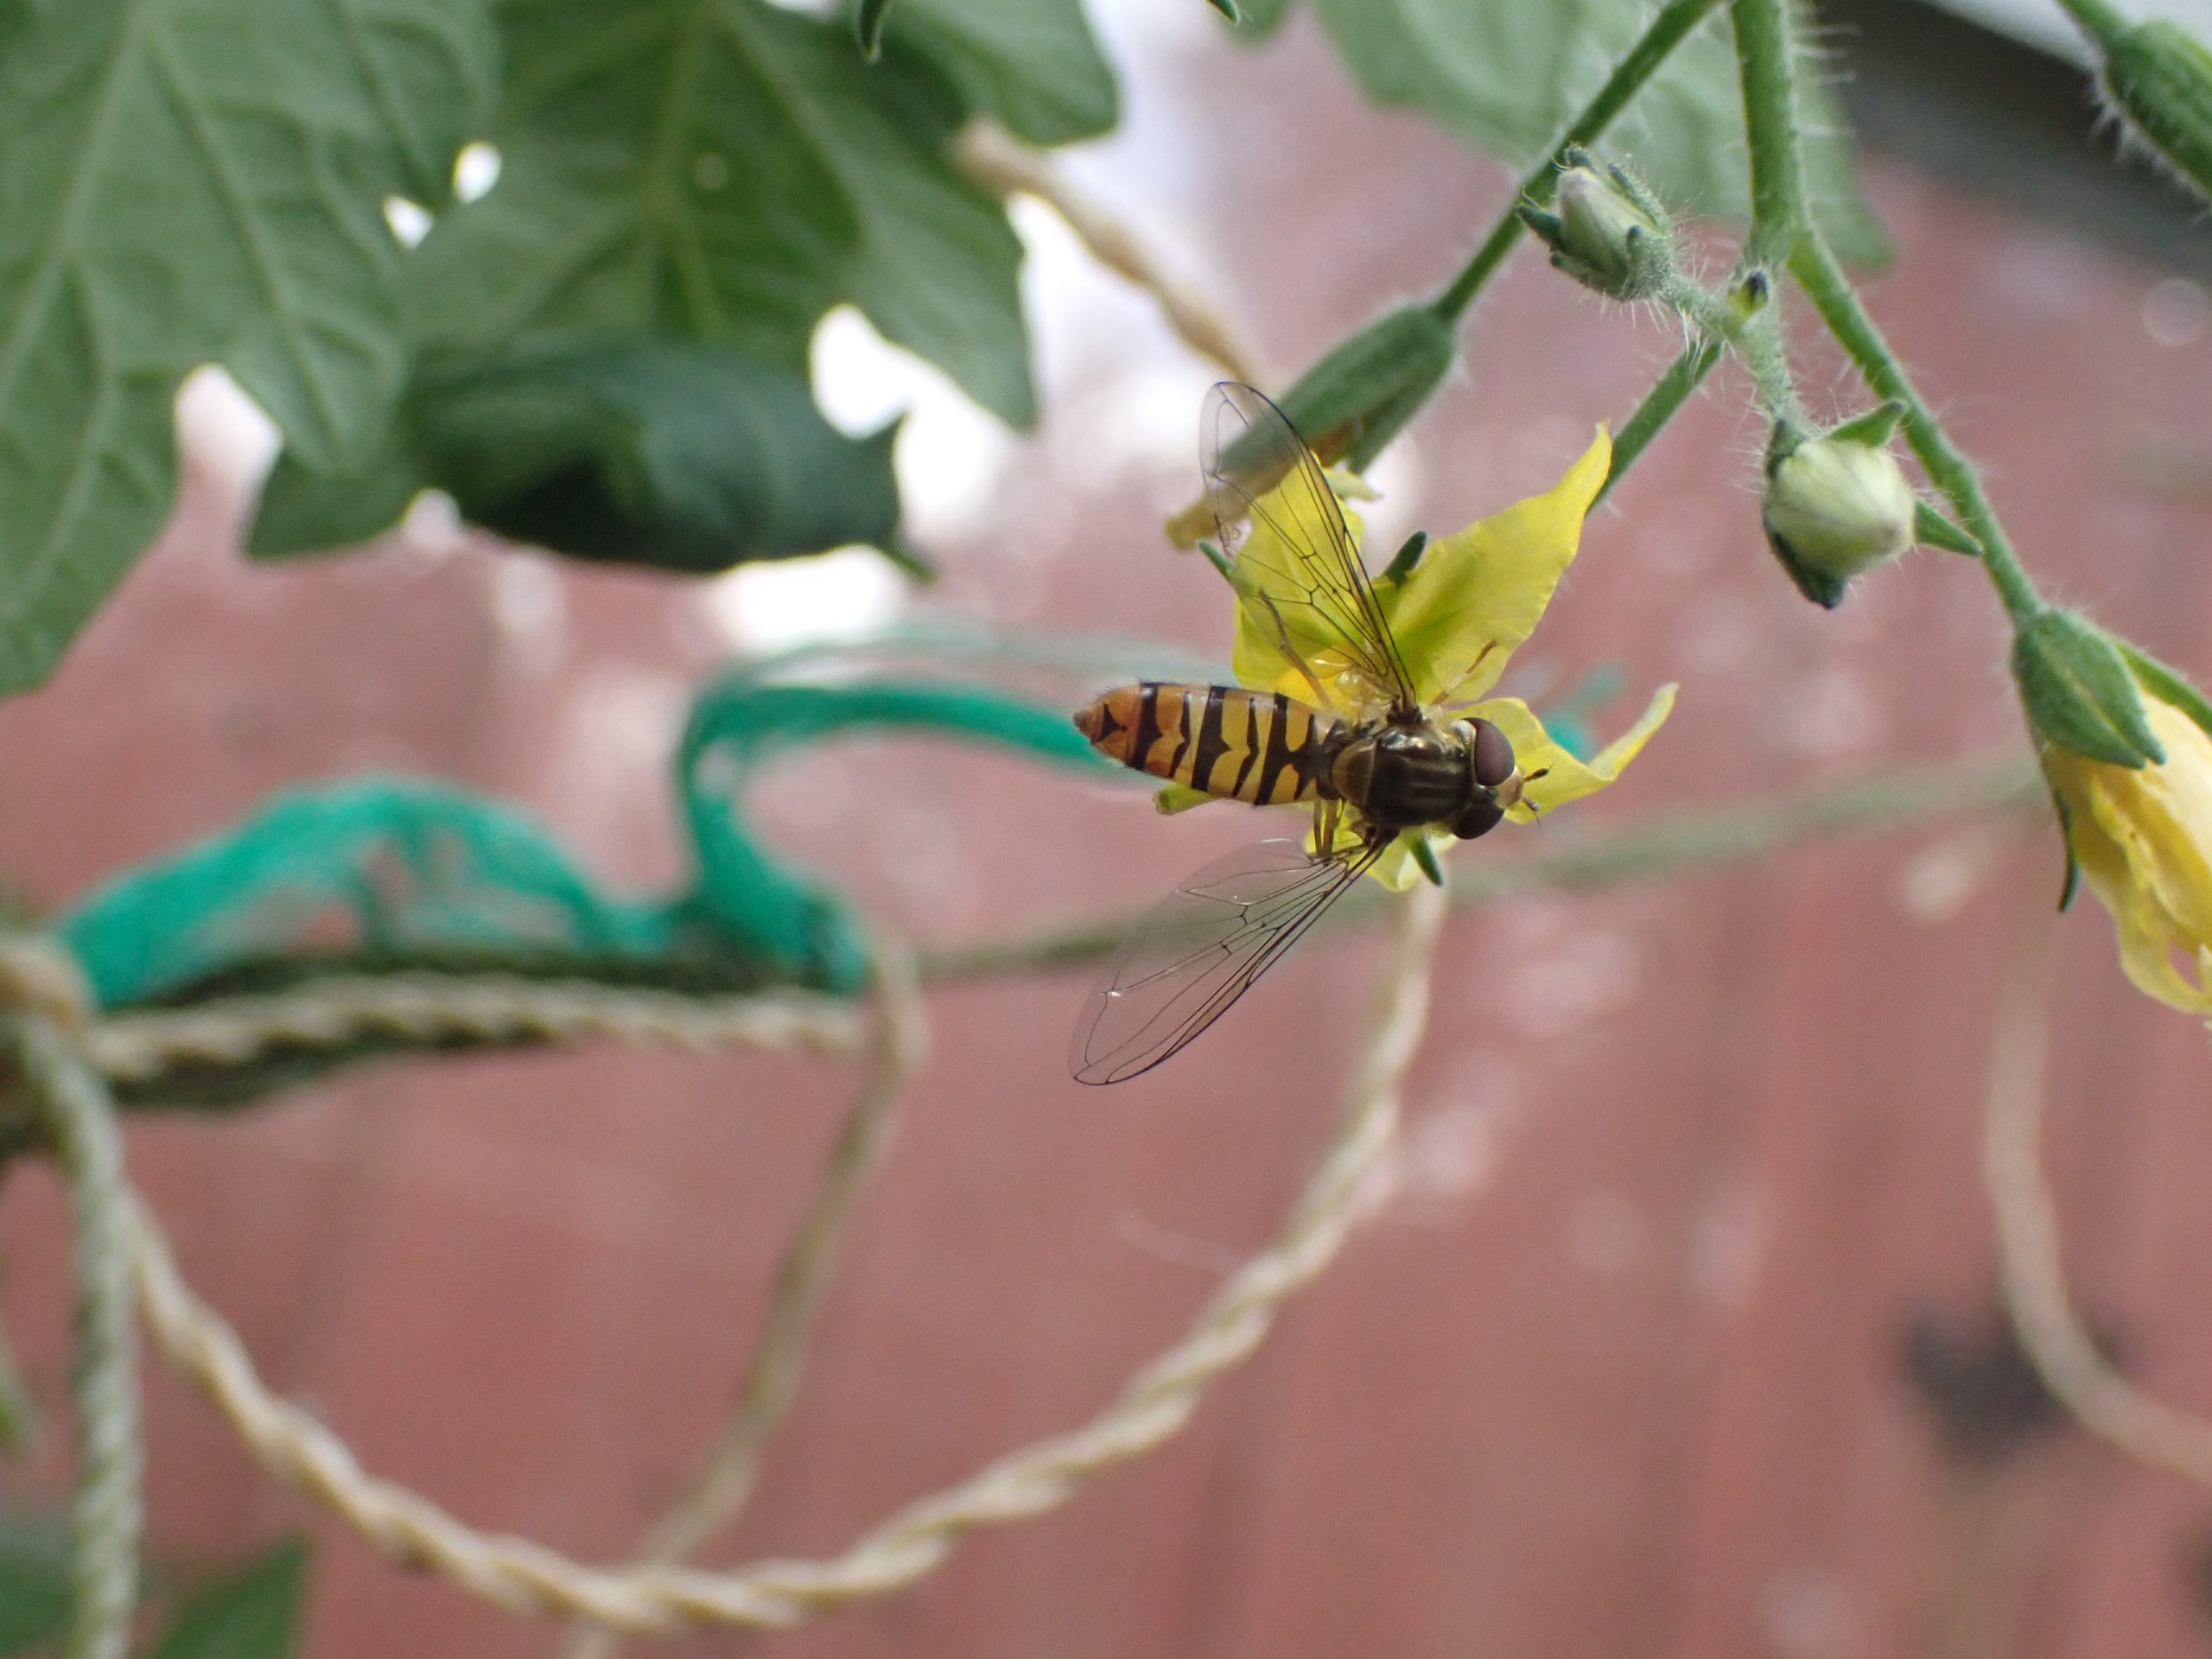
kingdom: Animalia
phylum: Arthropoda
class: Insecta
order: Diptera
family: Syrphidae
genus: Episyrphus
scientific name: Episyrphus balteatus
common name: Dobbeltbåndet svirreflue
